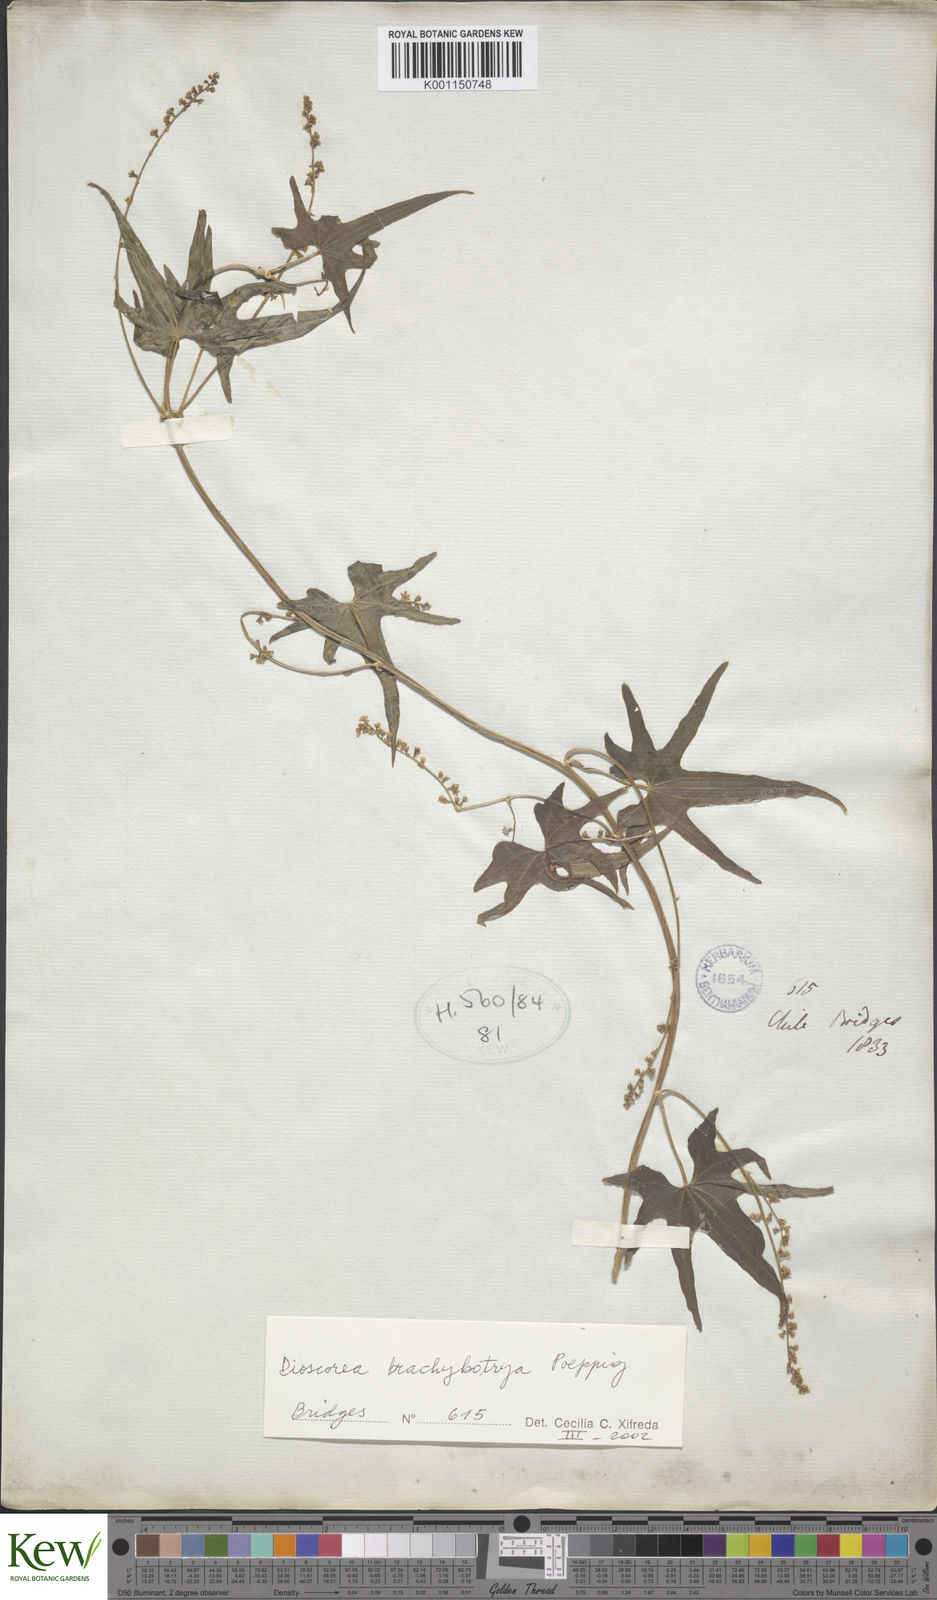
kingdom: Plantae
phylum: Tracheophyta
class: Liliopsida
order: Dioscoreales
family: Dioscoreaceae
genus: Dioscorea
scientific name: Dioscorea
